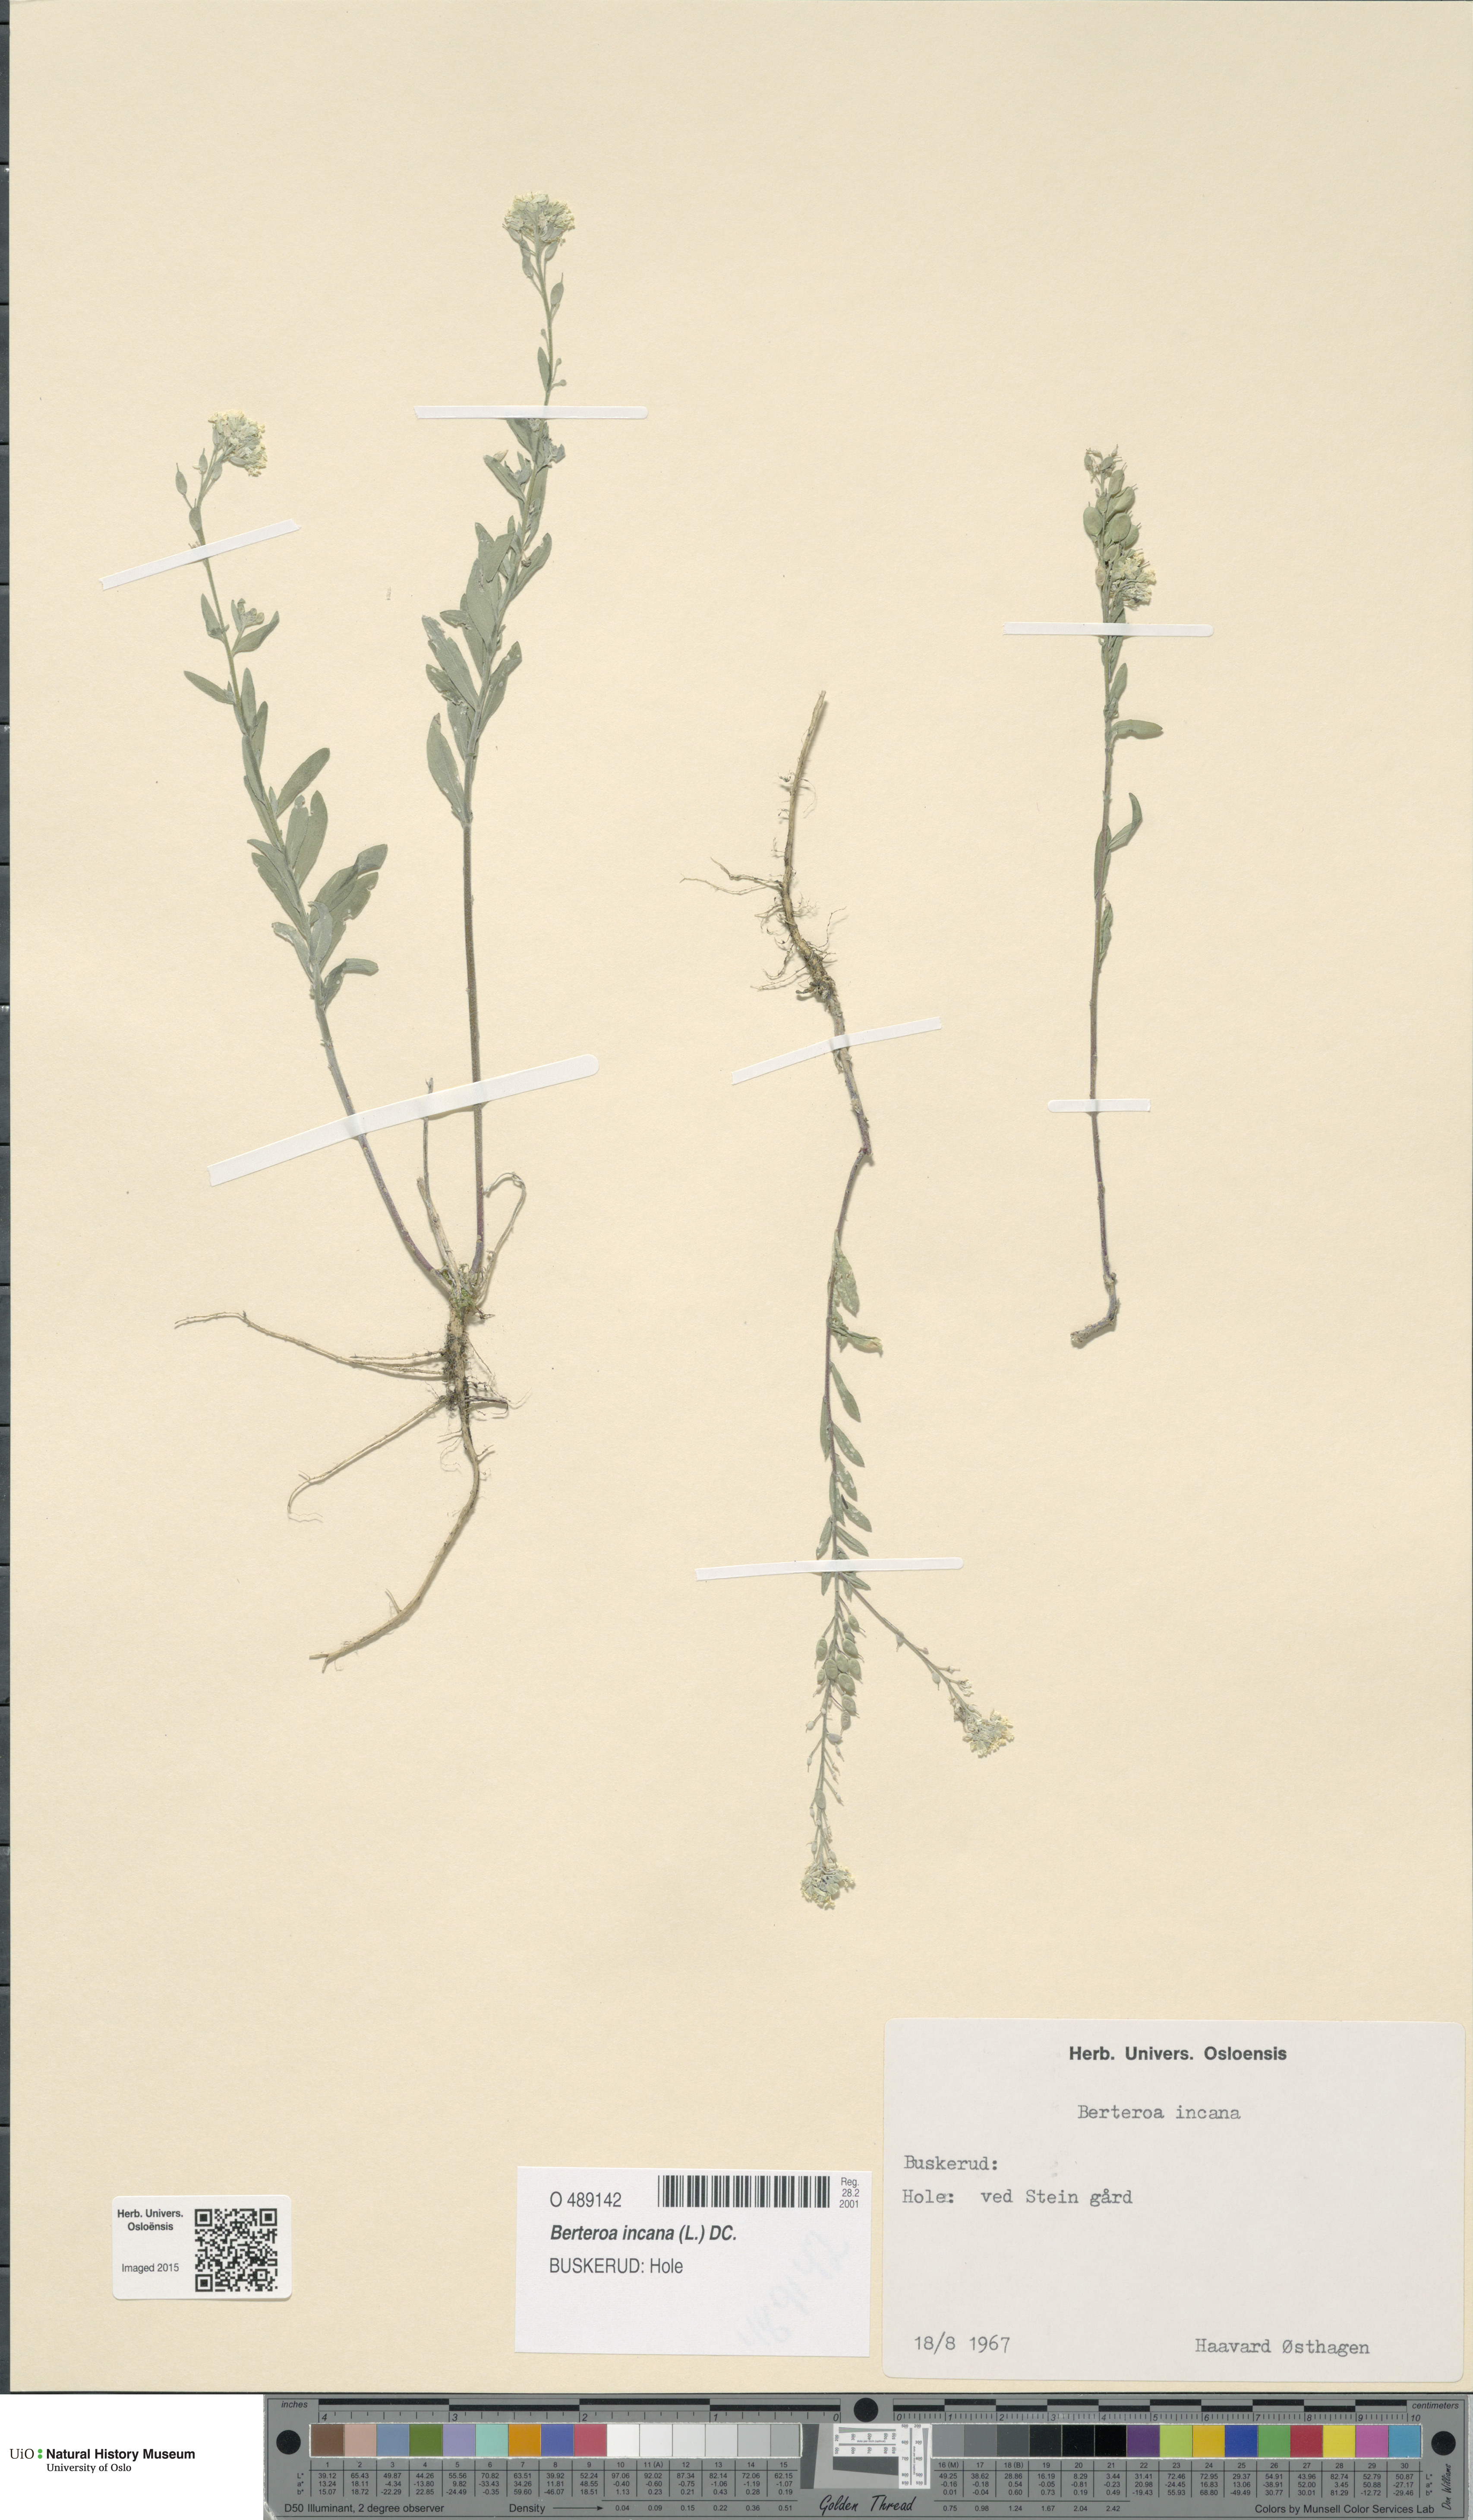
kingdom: Plantae
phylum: Tracheophyta
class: Magnoliopsida
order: Brassicales
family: Brassicaceae
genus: Berteroa
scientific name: Berteroa incana
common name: Hoary alison
